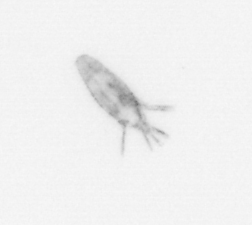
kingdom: Animalia
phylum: Arthropoda
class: Copepoda
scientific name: Copepoda
